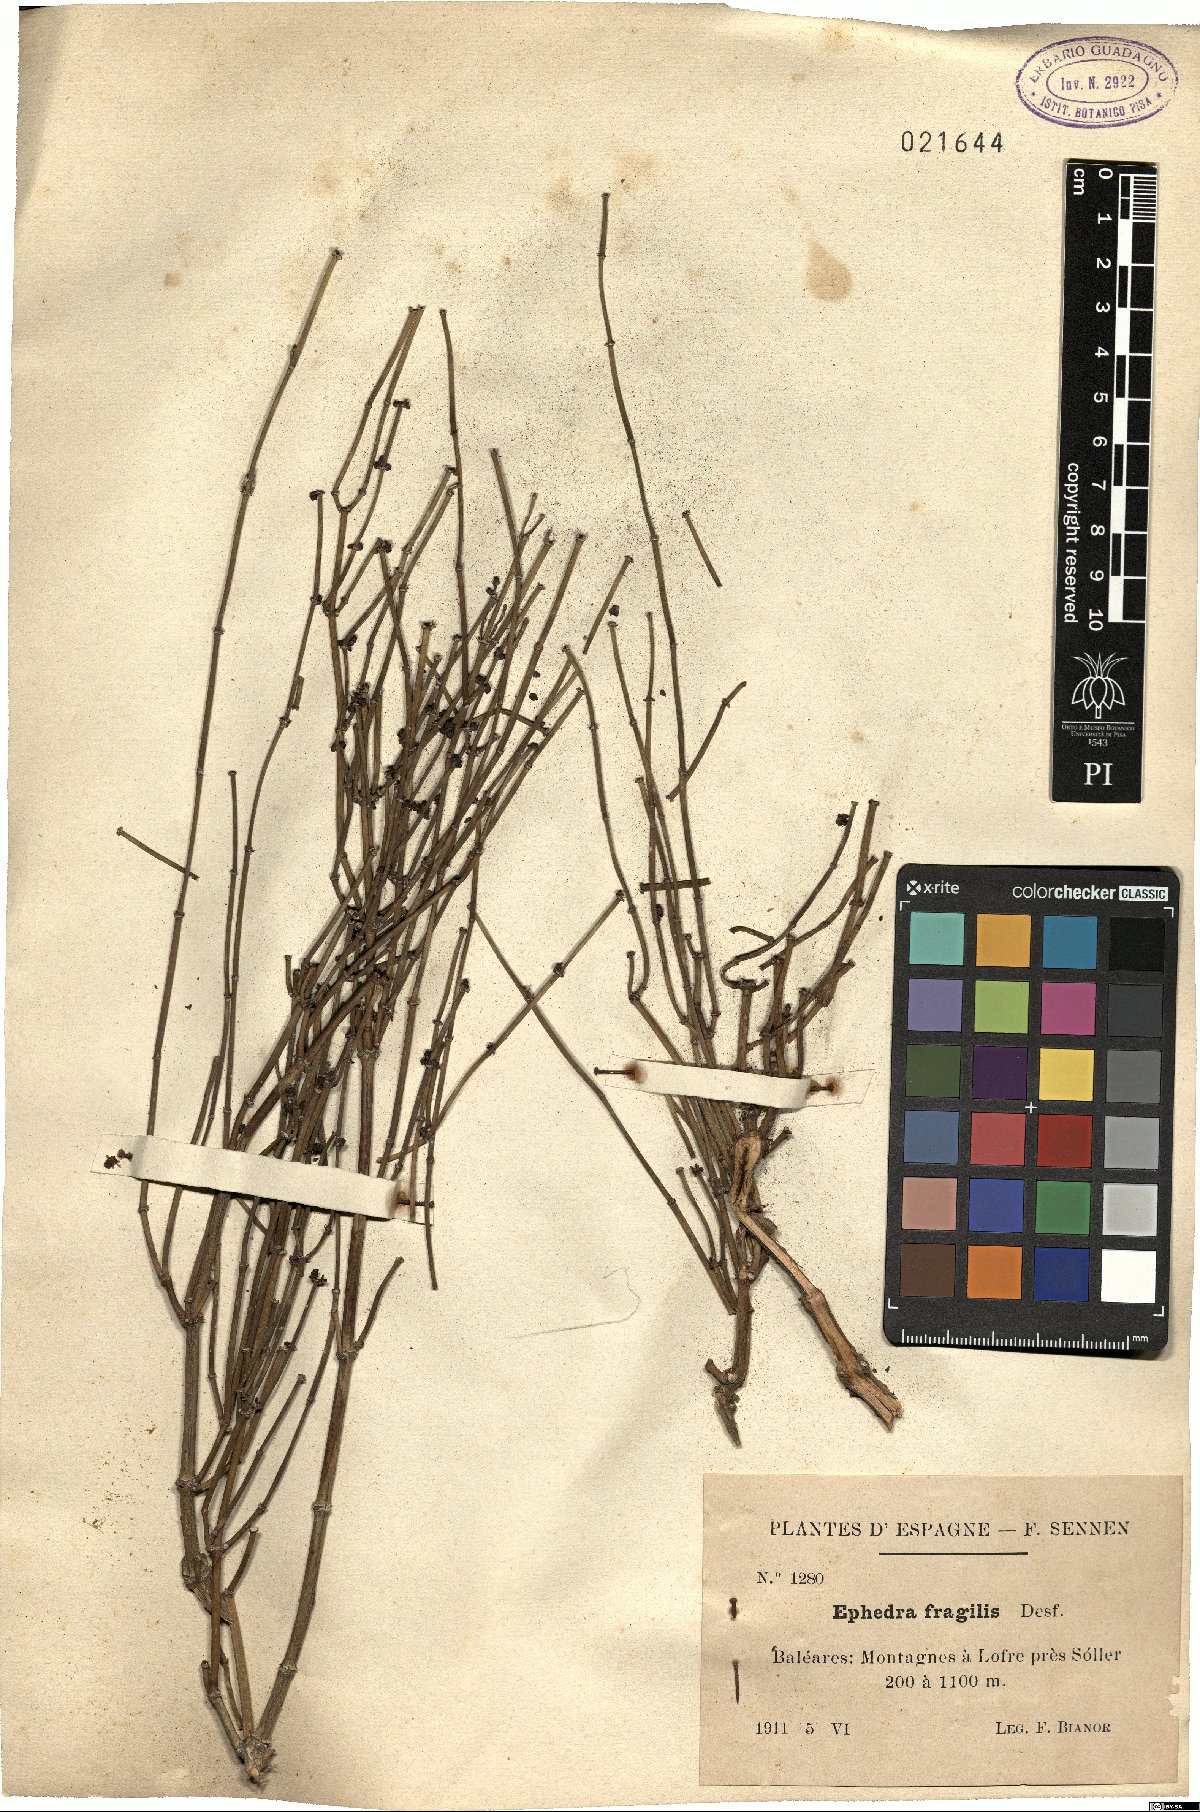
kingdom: Plantae
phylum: Tracheophyta
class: Gnetopsida
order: Ephedrales
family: Ephedraceae
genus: Ephedra
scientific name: Ephedra fragilis
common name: Joint pine
